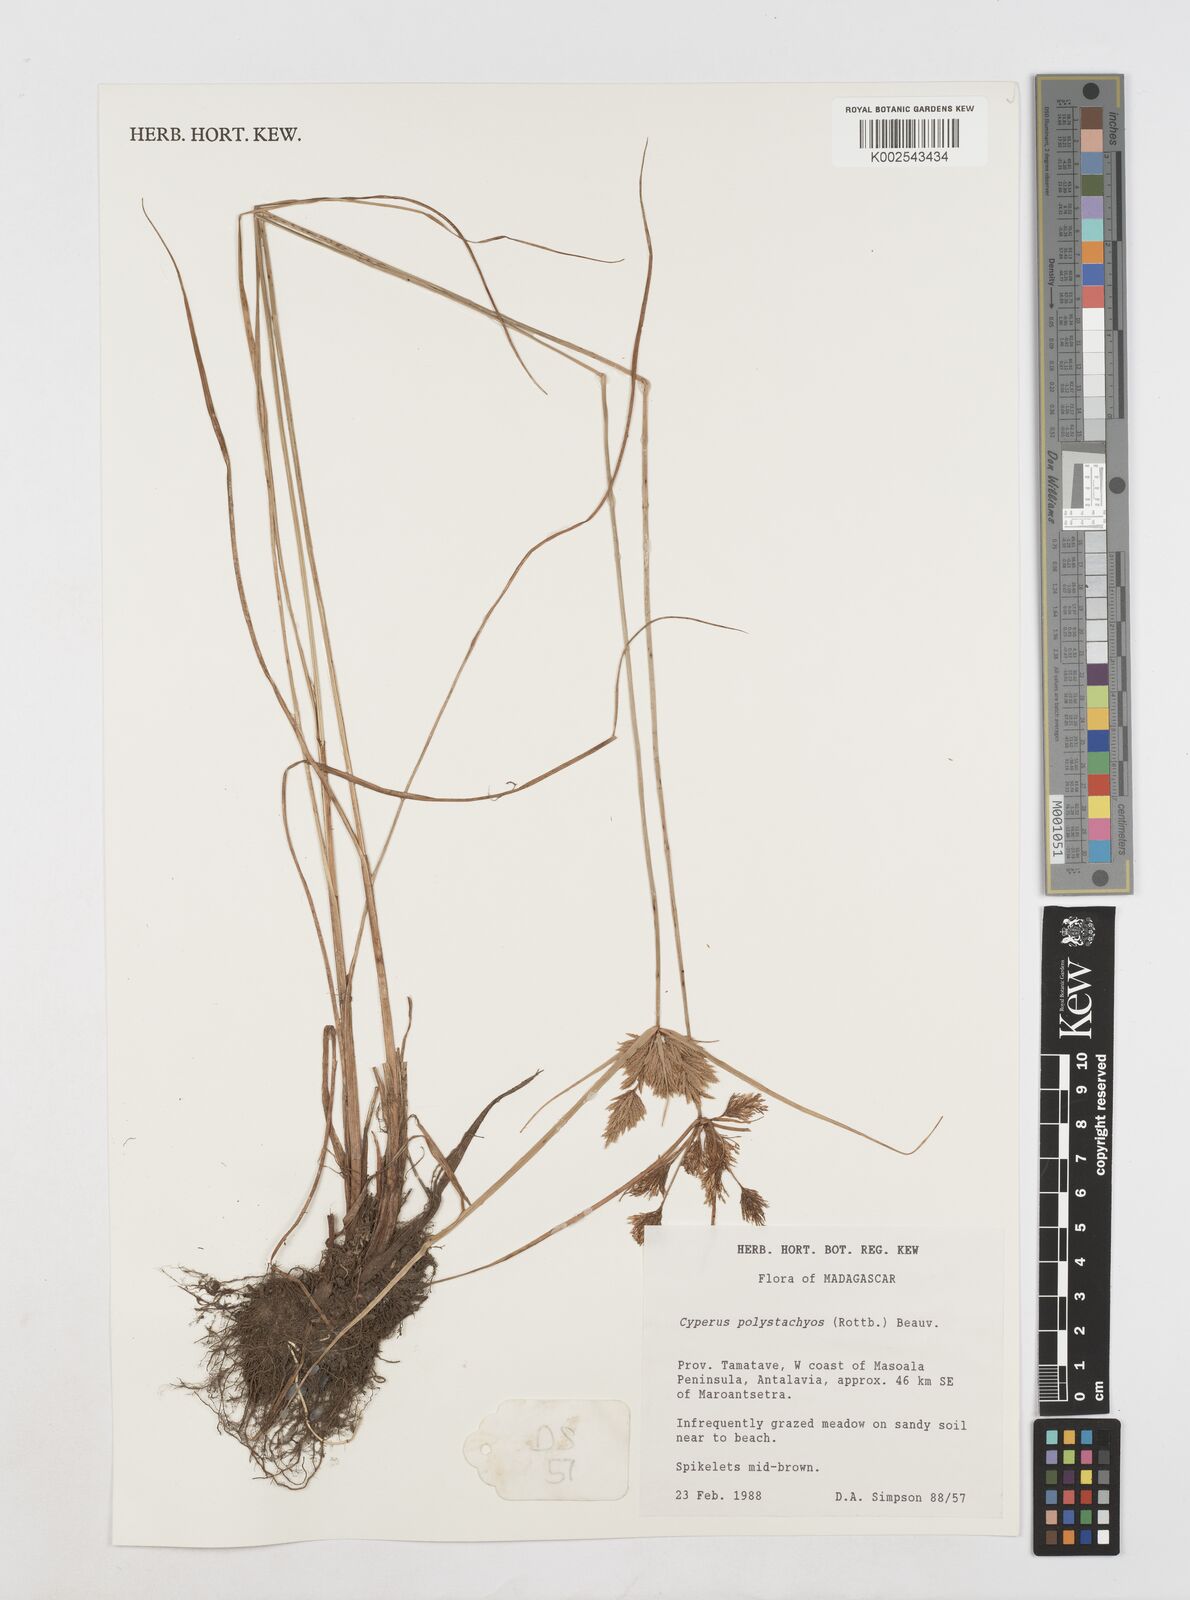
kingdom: Plantae
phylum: Tracheophyta
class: Liliopsida
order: Poales
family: Cyperaceae
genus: Cyperus
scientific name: Cyperus polystachyos
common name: Bunchy flat sedge
